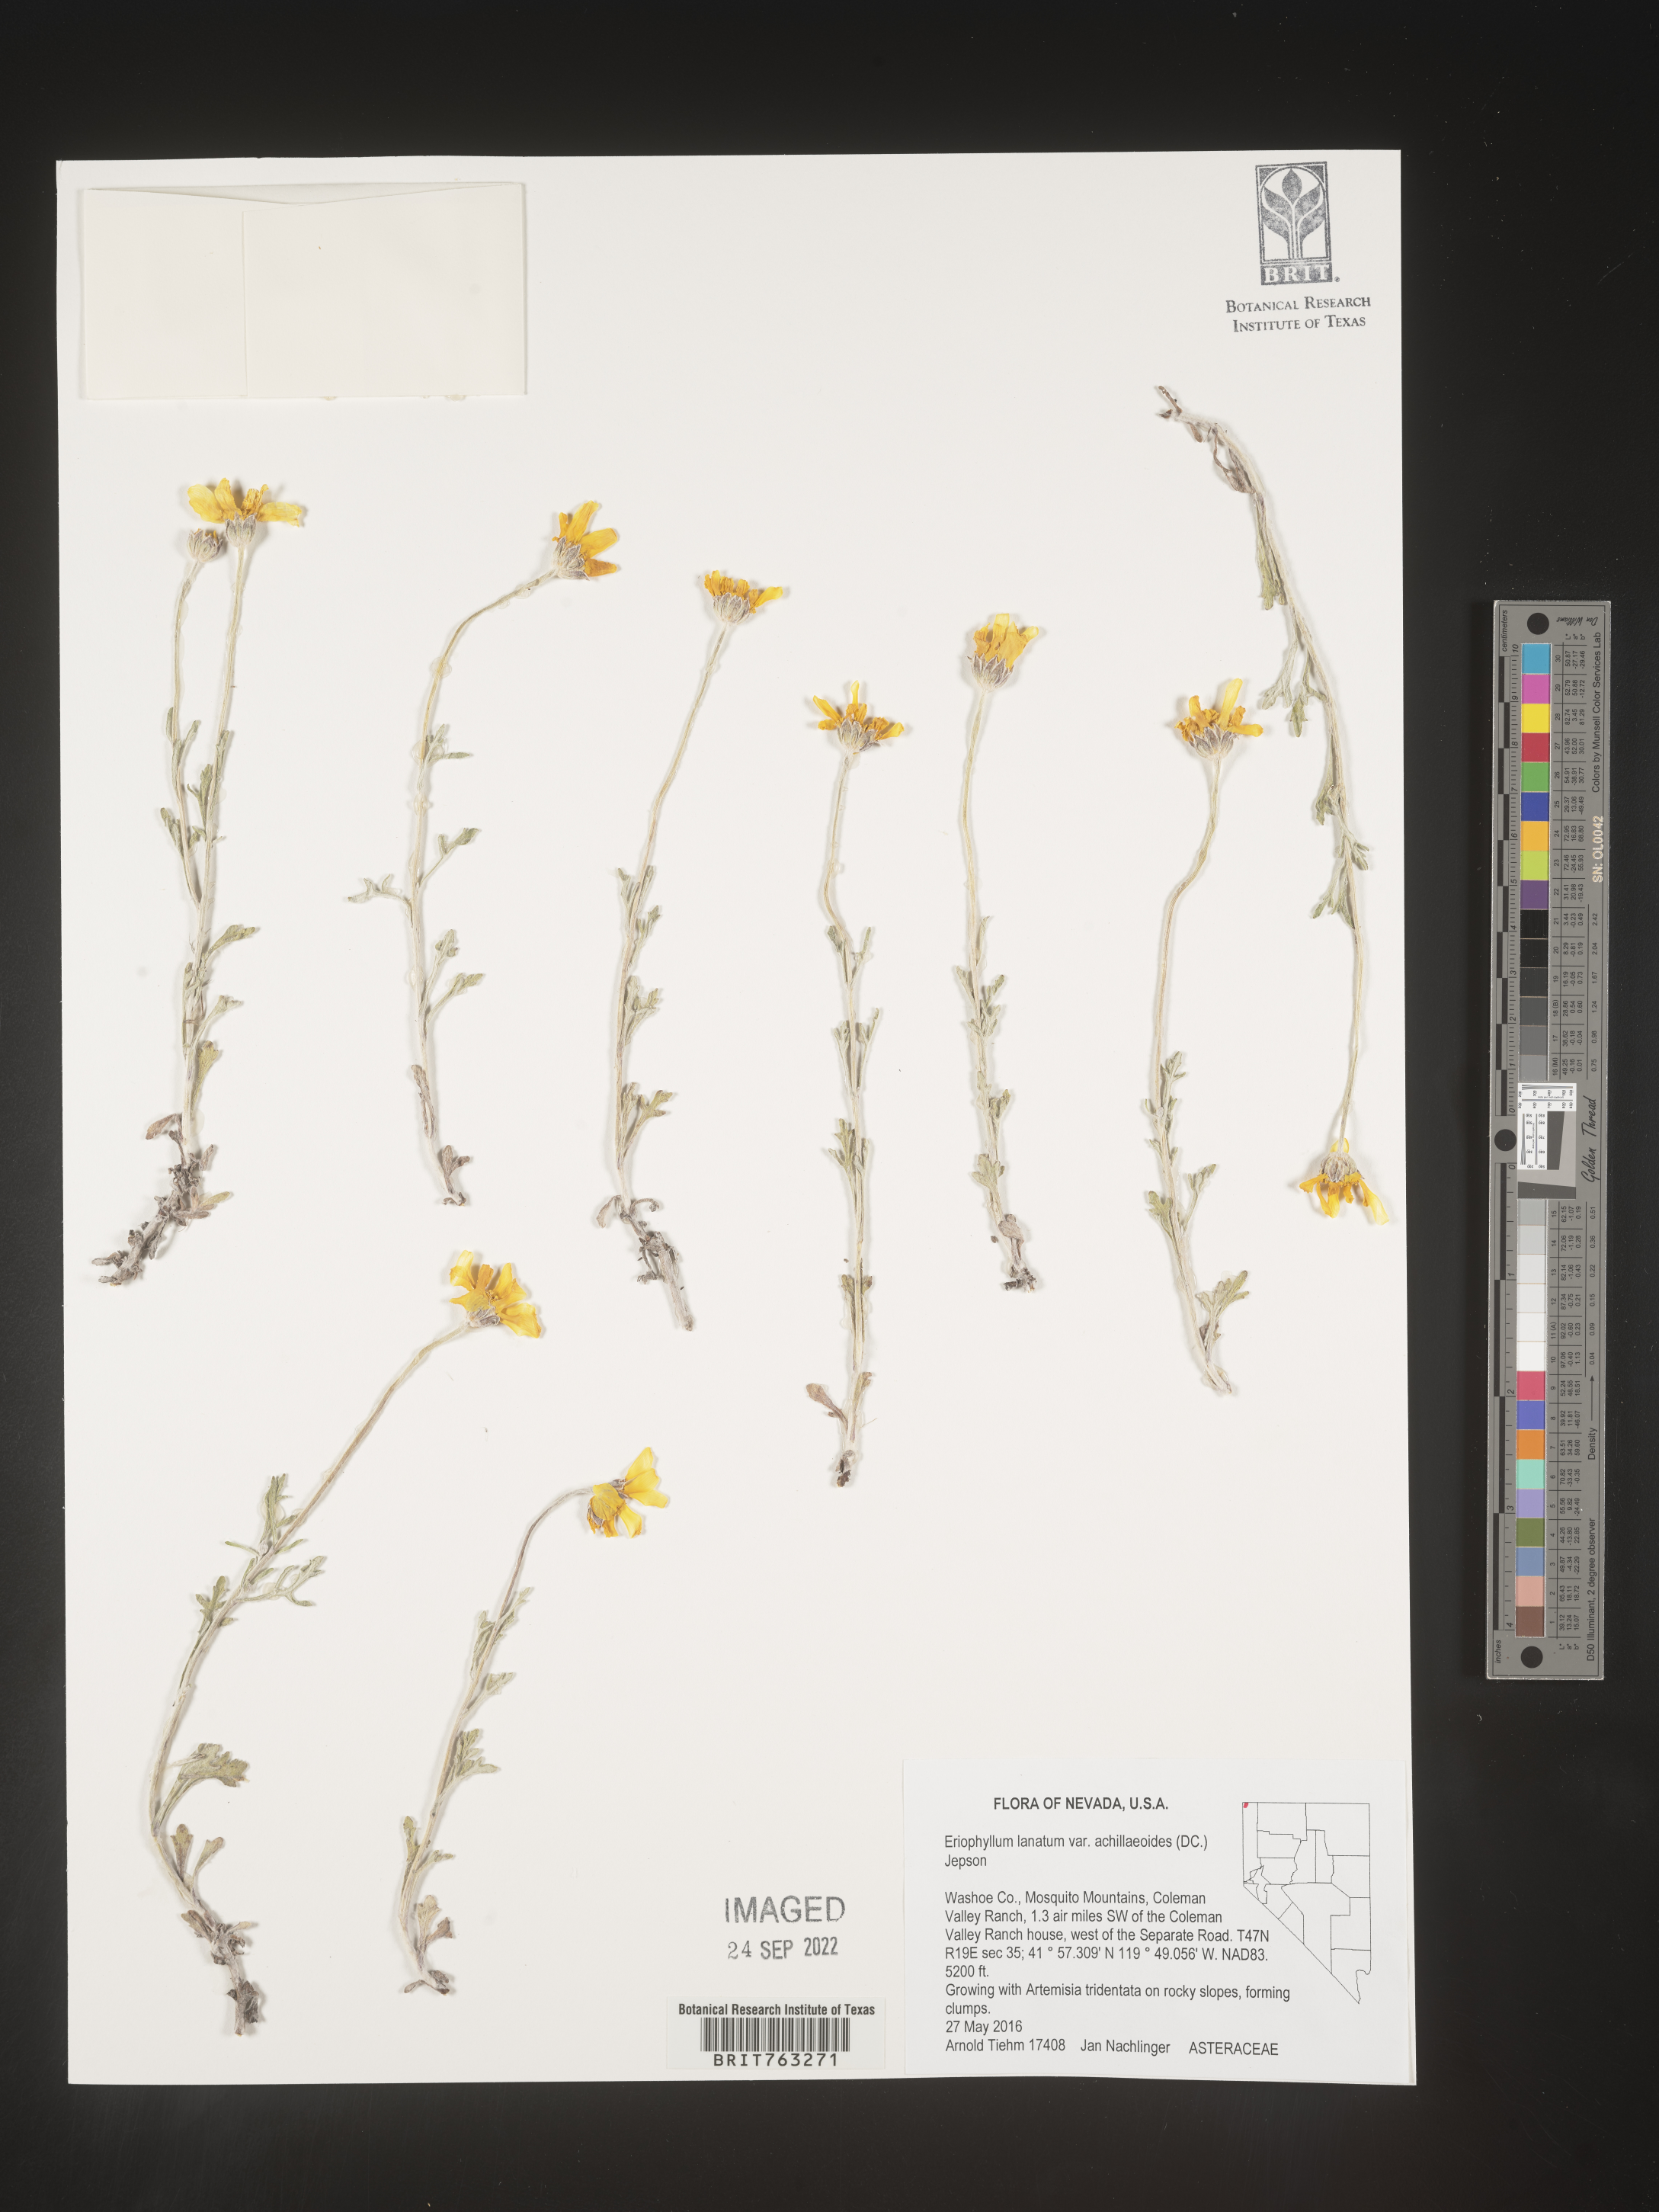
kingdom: Plantae
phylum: Tracheophyta
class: Magnoliopsida
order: Asterales
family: Asteraceae
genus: Eriophyllum
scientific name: Eriophyllum lanatum
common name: Common woolly-sunflower
